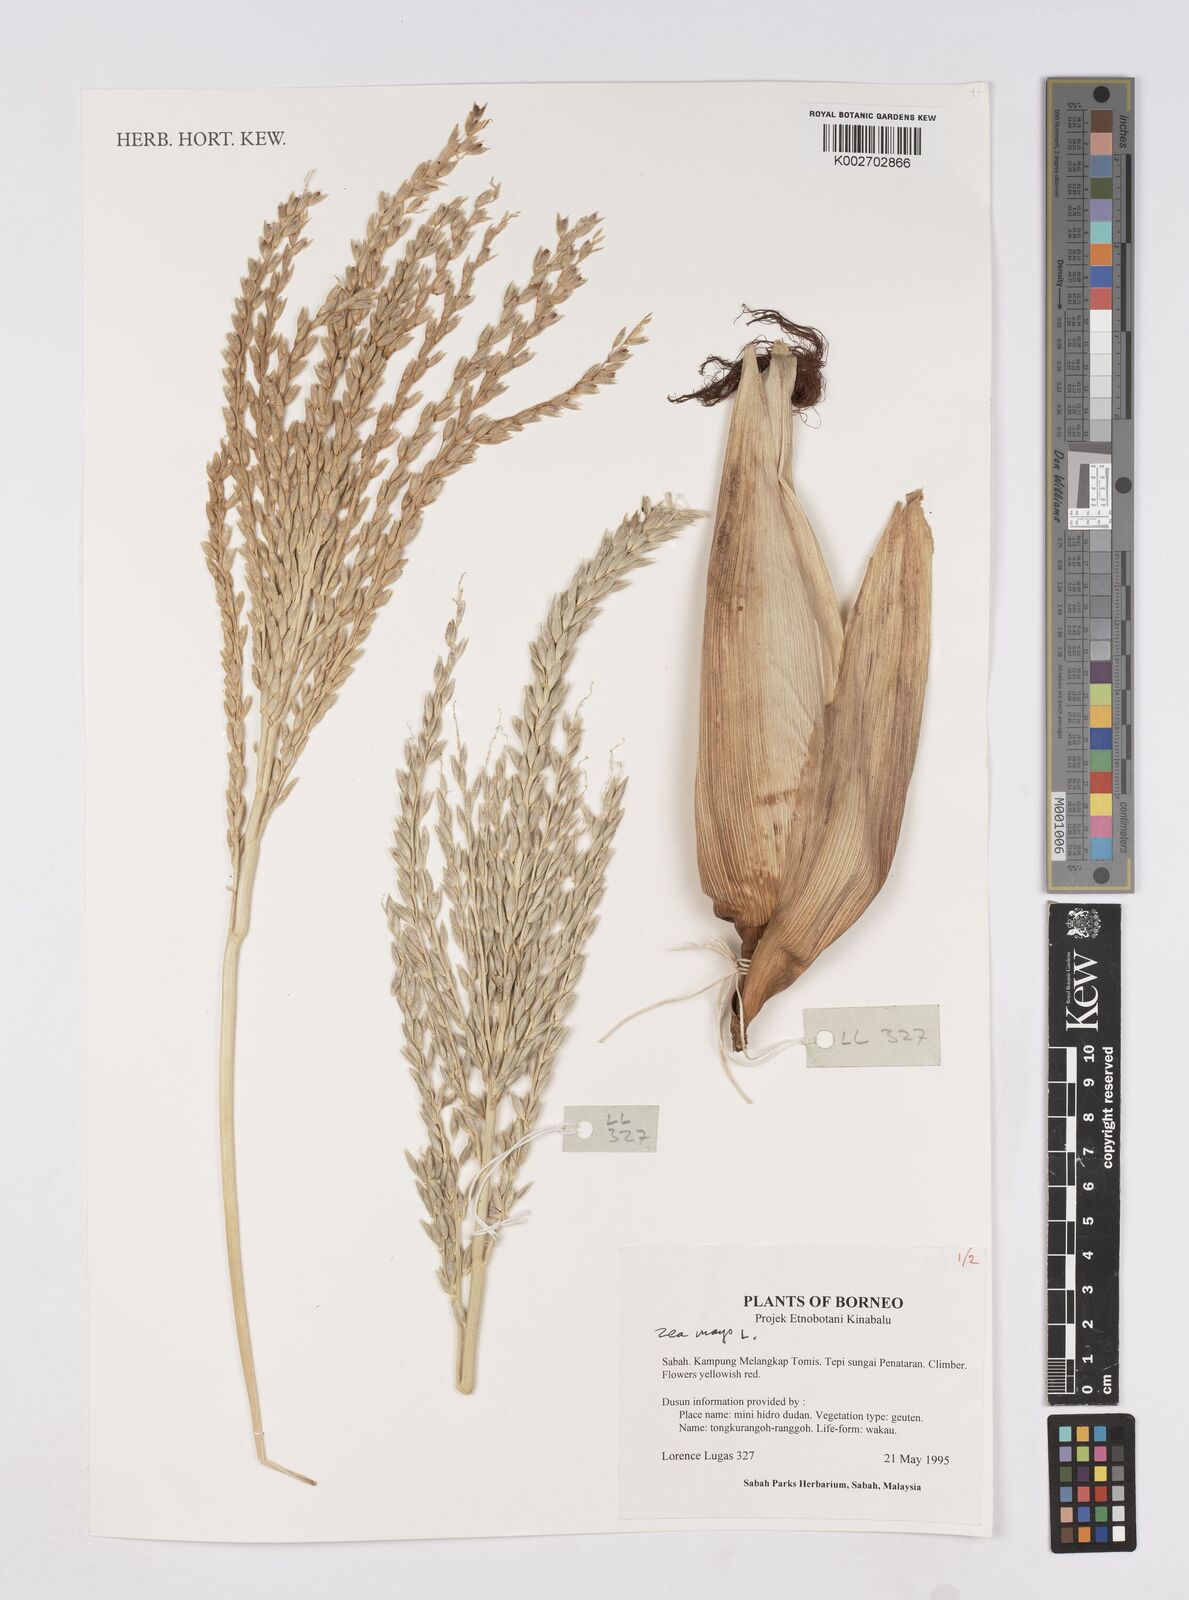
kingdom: Plantae
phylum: Tracheophyta
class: Liliopsida
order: Poales
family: Poaceae
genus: Zea
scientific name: Zea mays
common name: Maize
